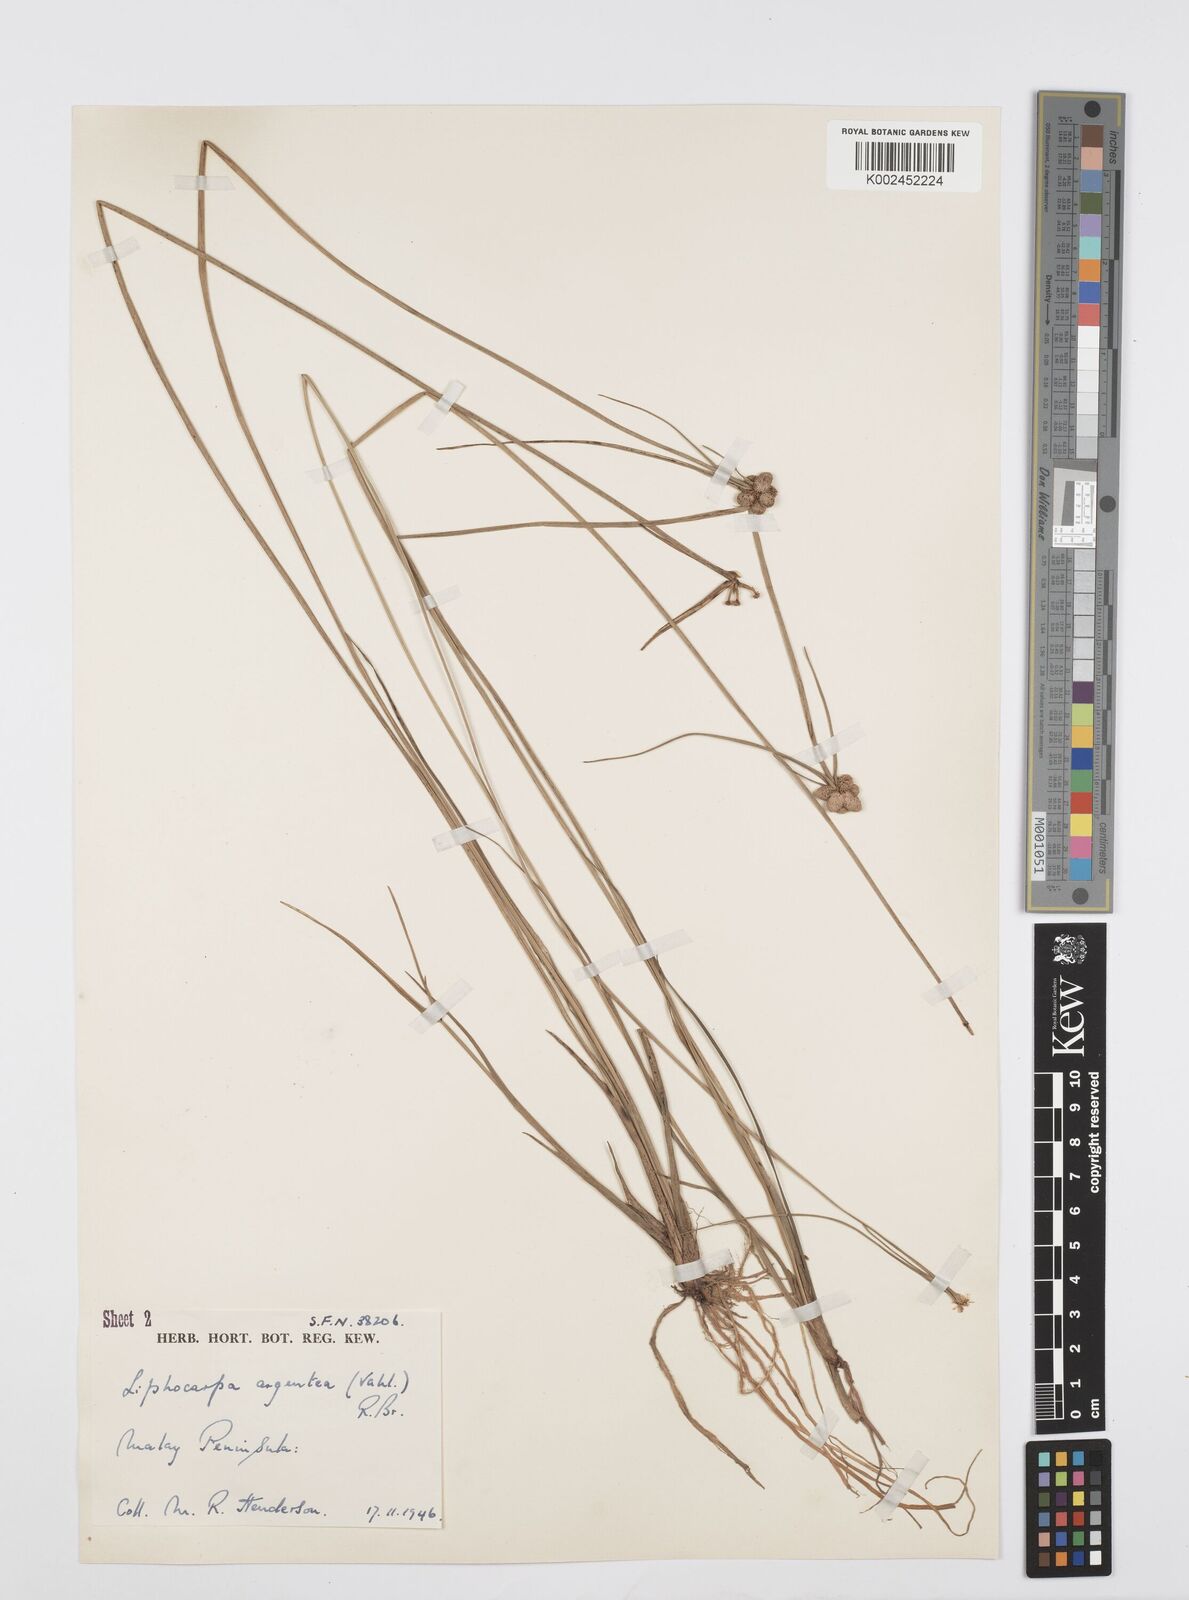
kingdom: Plantae
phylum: Tracheophyta
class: Liliopsida
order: Poales
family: Cyperaceae
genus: Cyperus
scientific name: Cyperus
